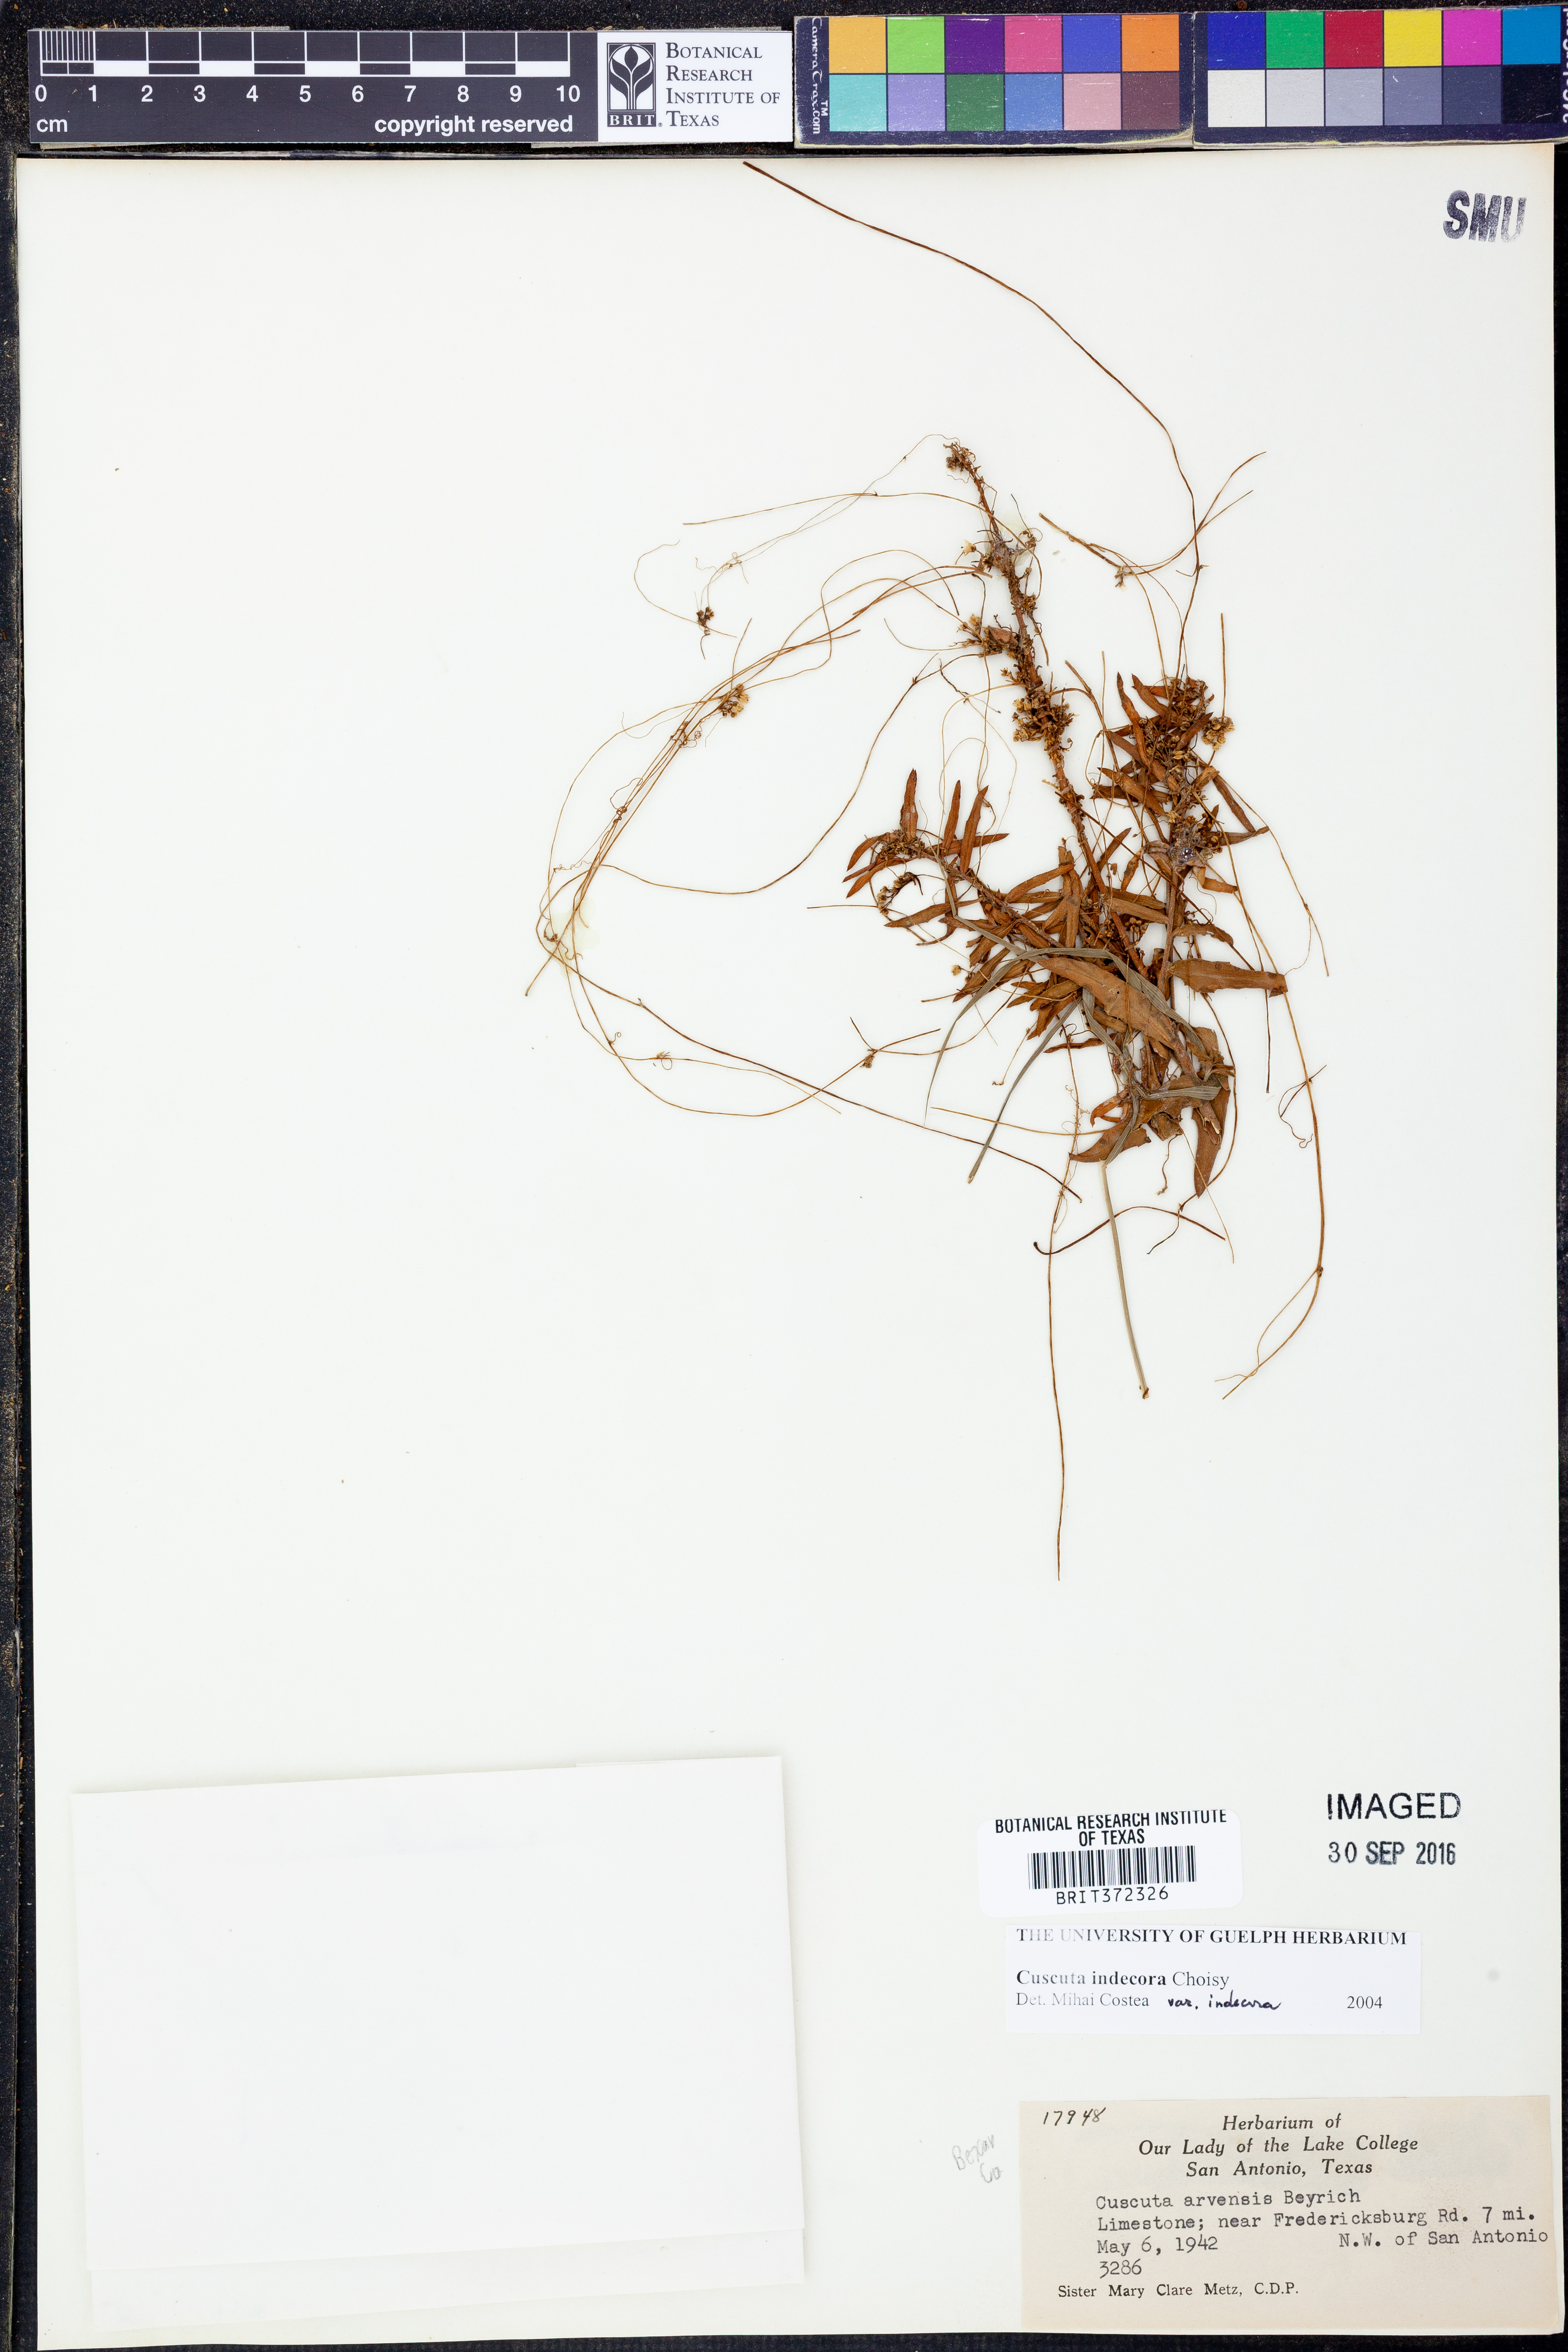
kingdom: Plantae
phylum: Tracheophyta
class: Magnoliopsida
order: Solanales
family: Convolvulaceae
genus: Cuscuta
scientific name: Cuscuta indecora
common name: Large-seed dodder
